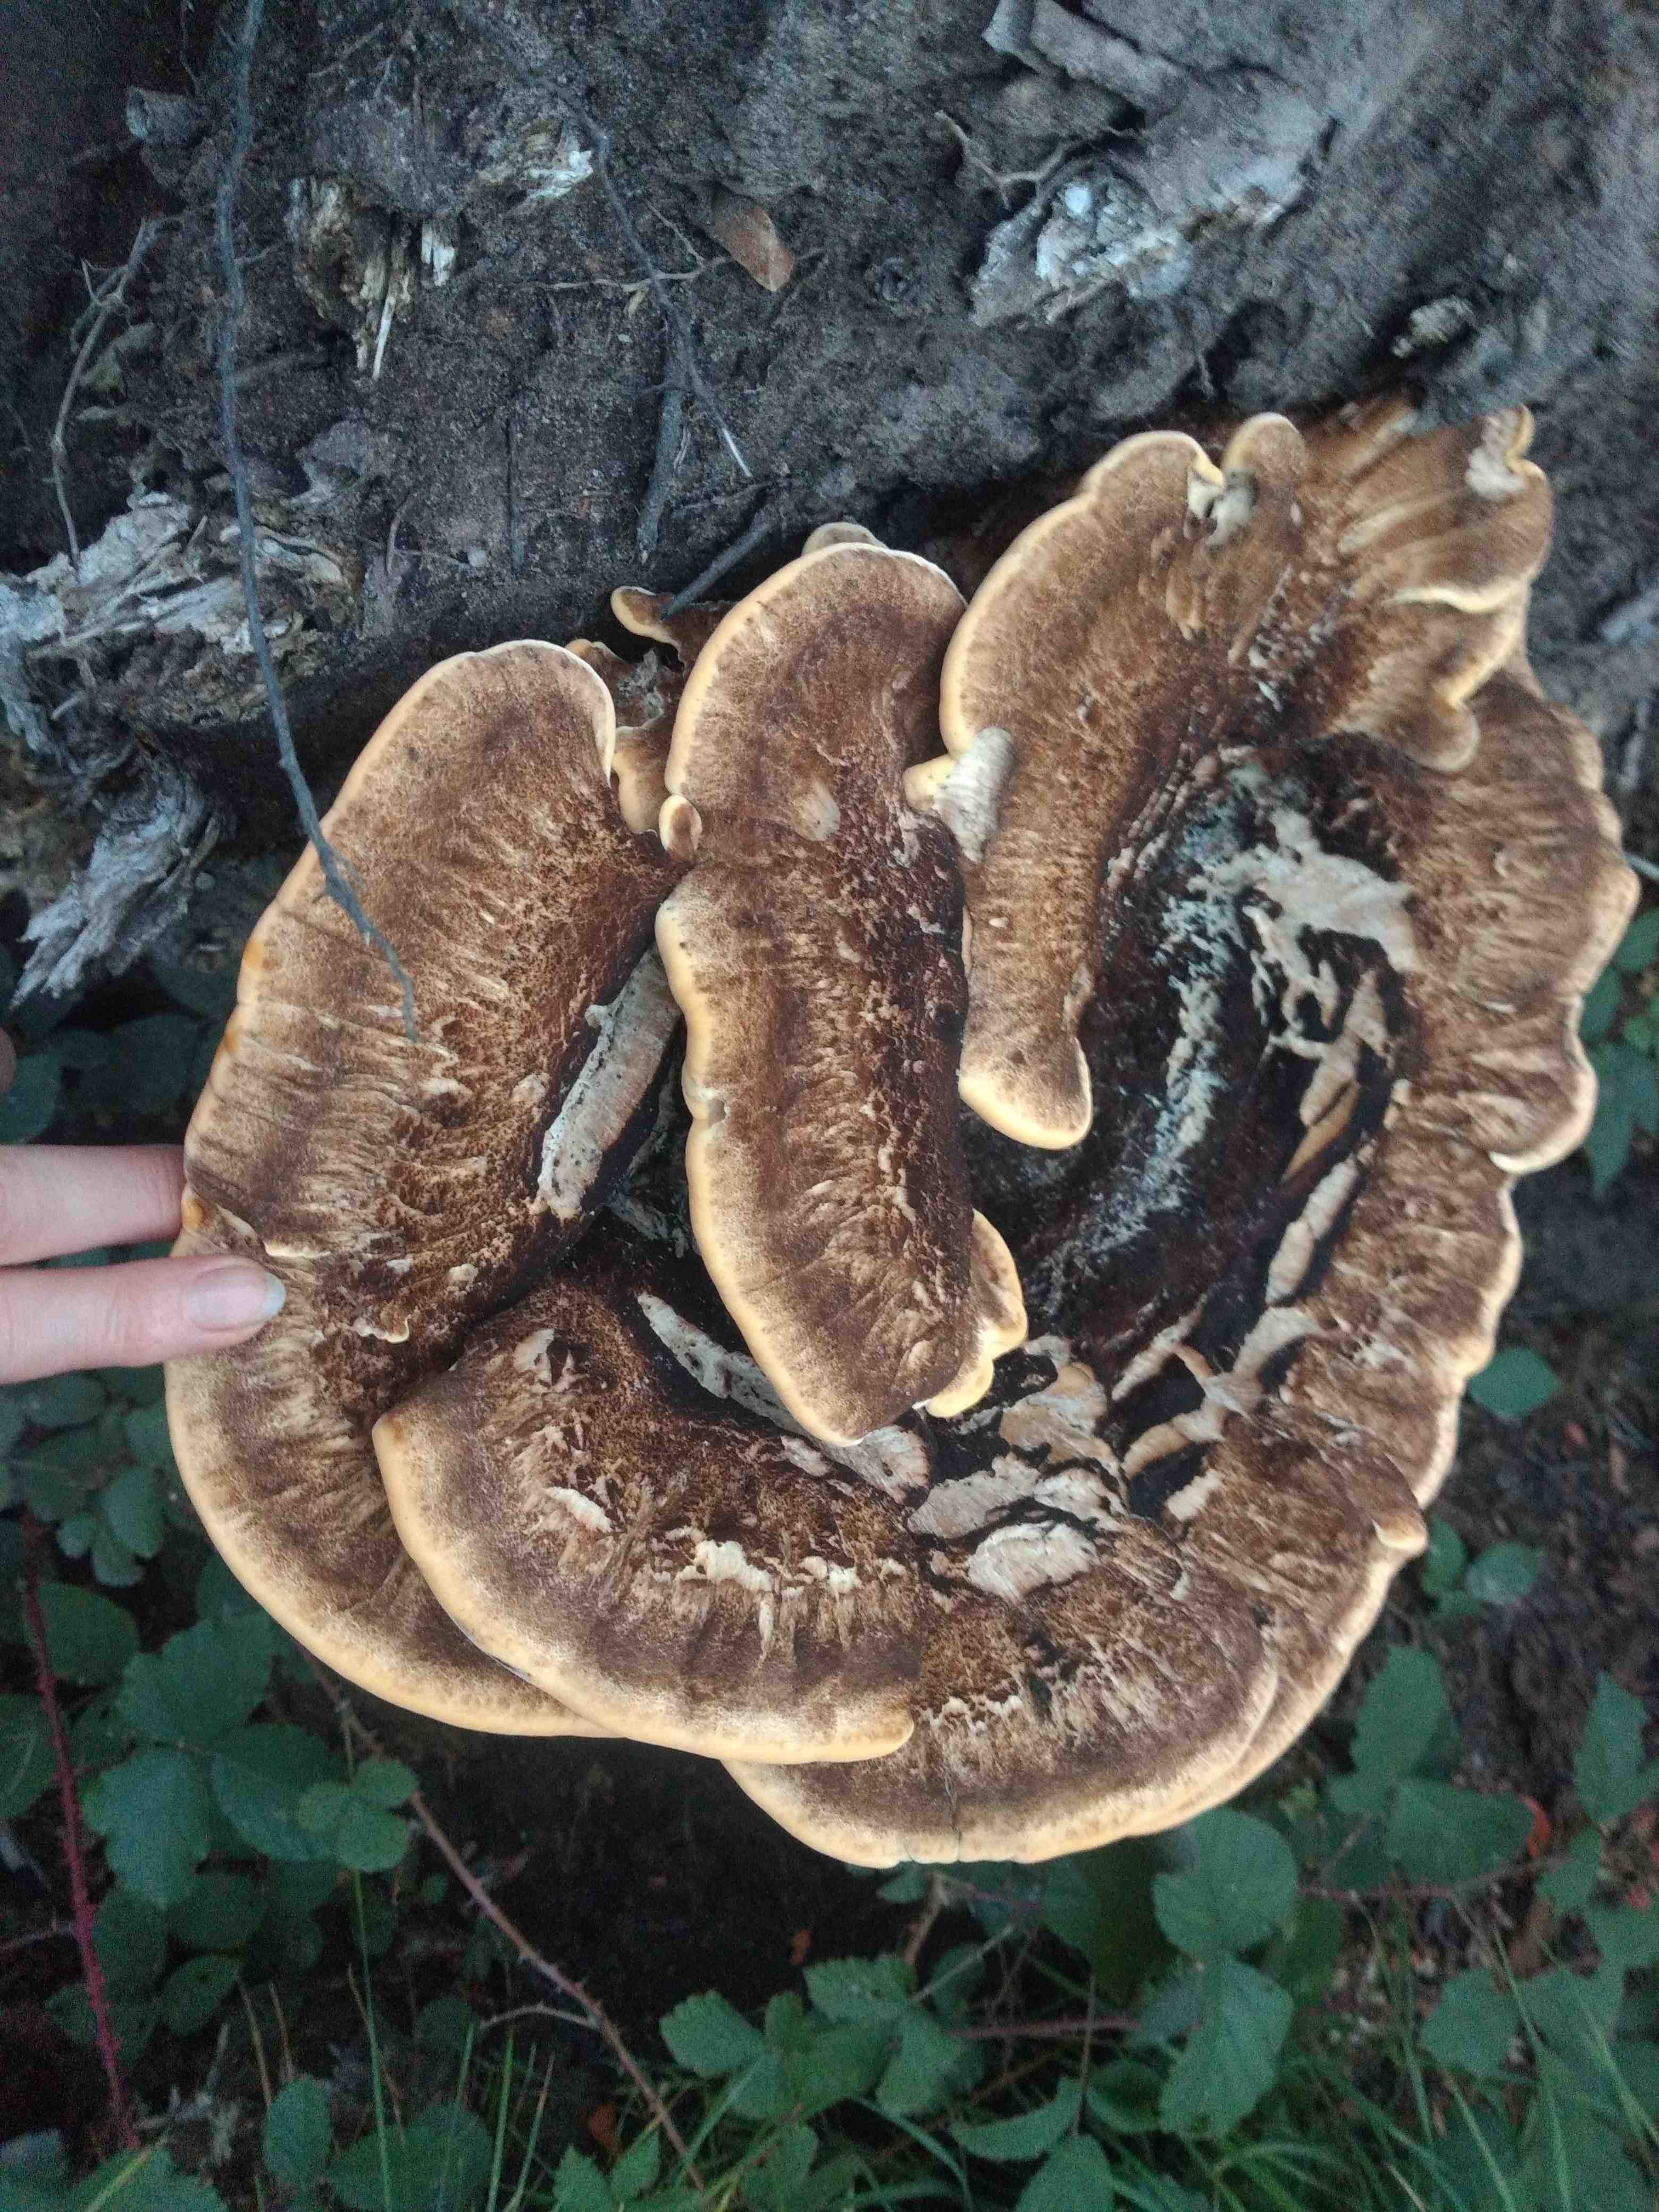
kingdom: Fungi
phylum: Basidiomycota
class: Agaricomycetes
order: Polyporales
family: Meripilaceae
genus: Meripilus
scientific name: Meripilus giganteus
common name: kæmpeporesvamp
